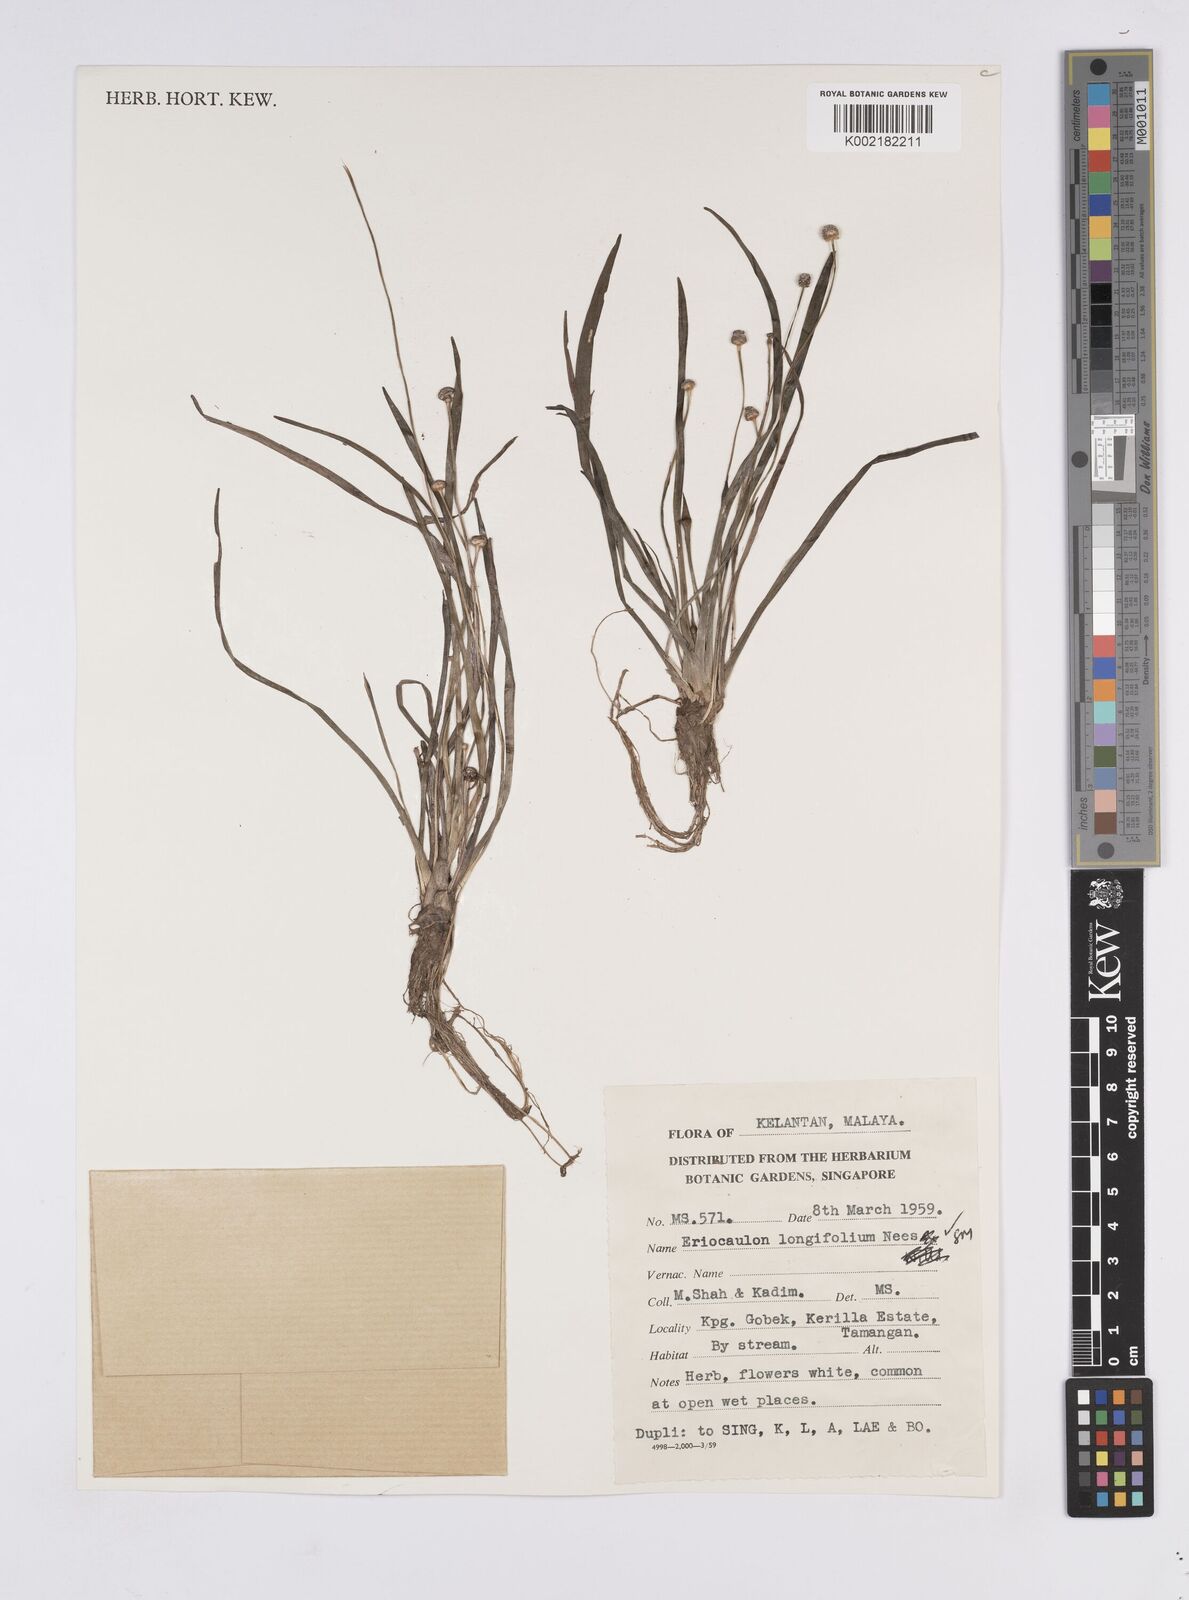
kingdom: Plantae
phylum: Tracheophyta
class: Liliopsida
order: Poales
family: Eriocaulaceae
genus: Eriocaulon
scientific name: Eriocaulon willdenovianum
